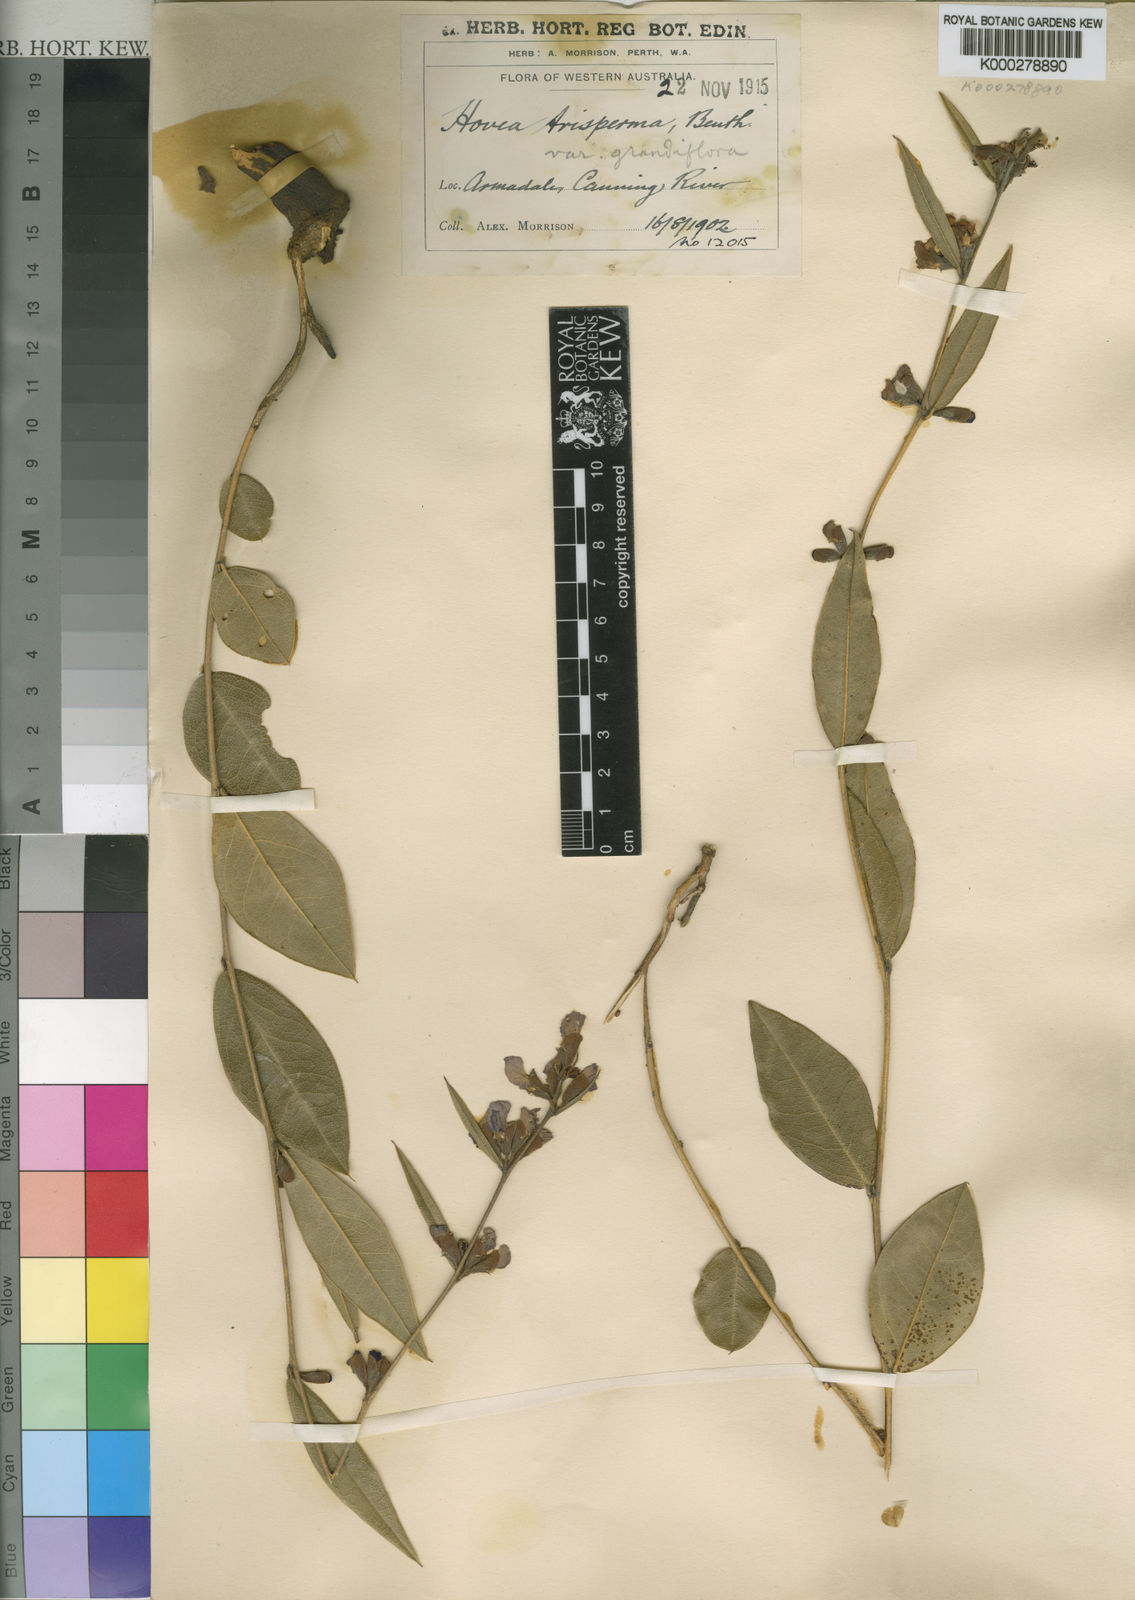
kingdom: Plantae
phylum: Tracheophyta
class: Magnoliopsida
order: Fabales
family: Fabaceae
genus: Hovea
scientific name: Hovea trisperma
